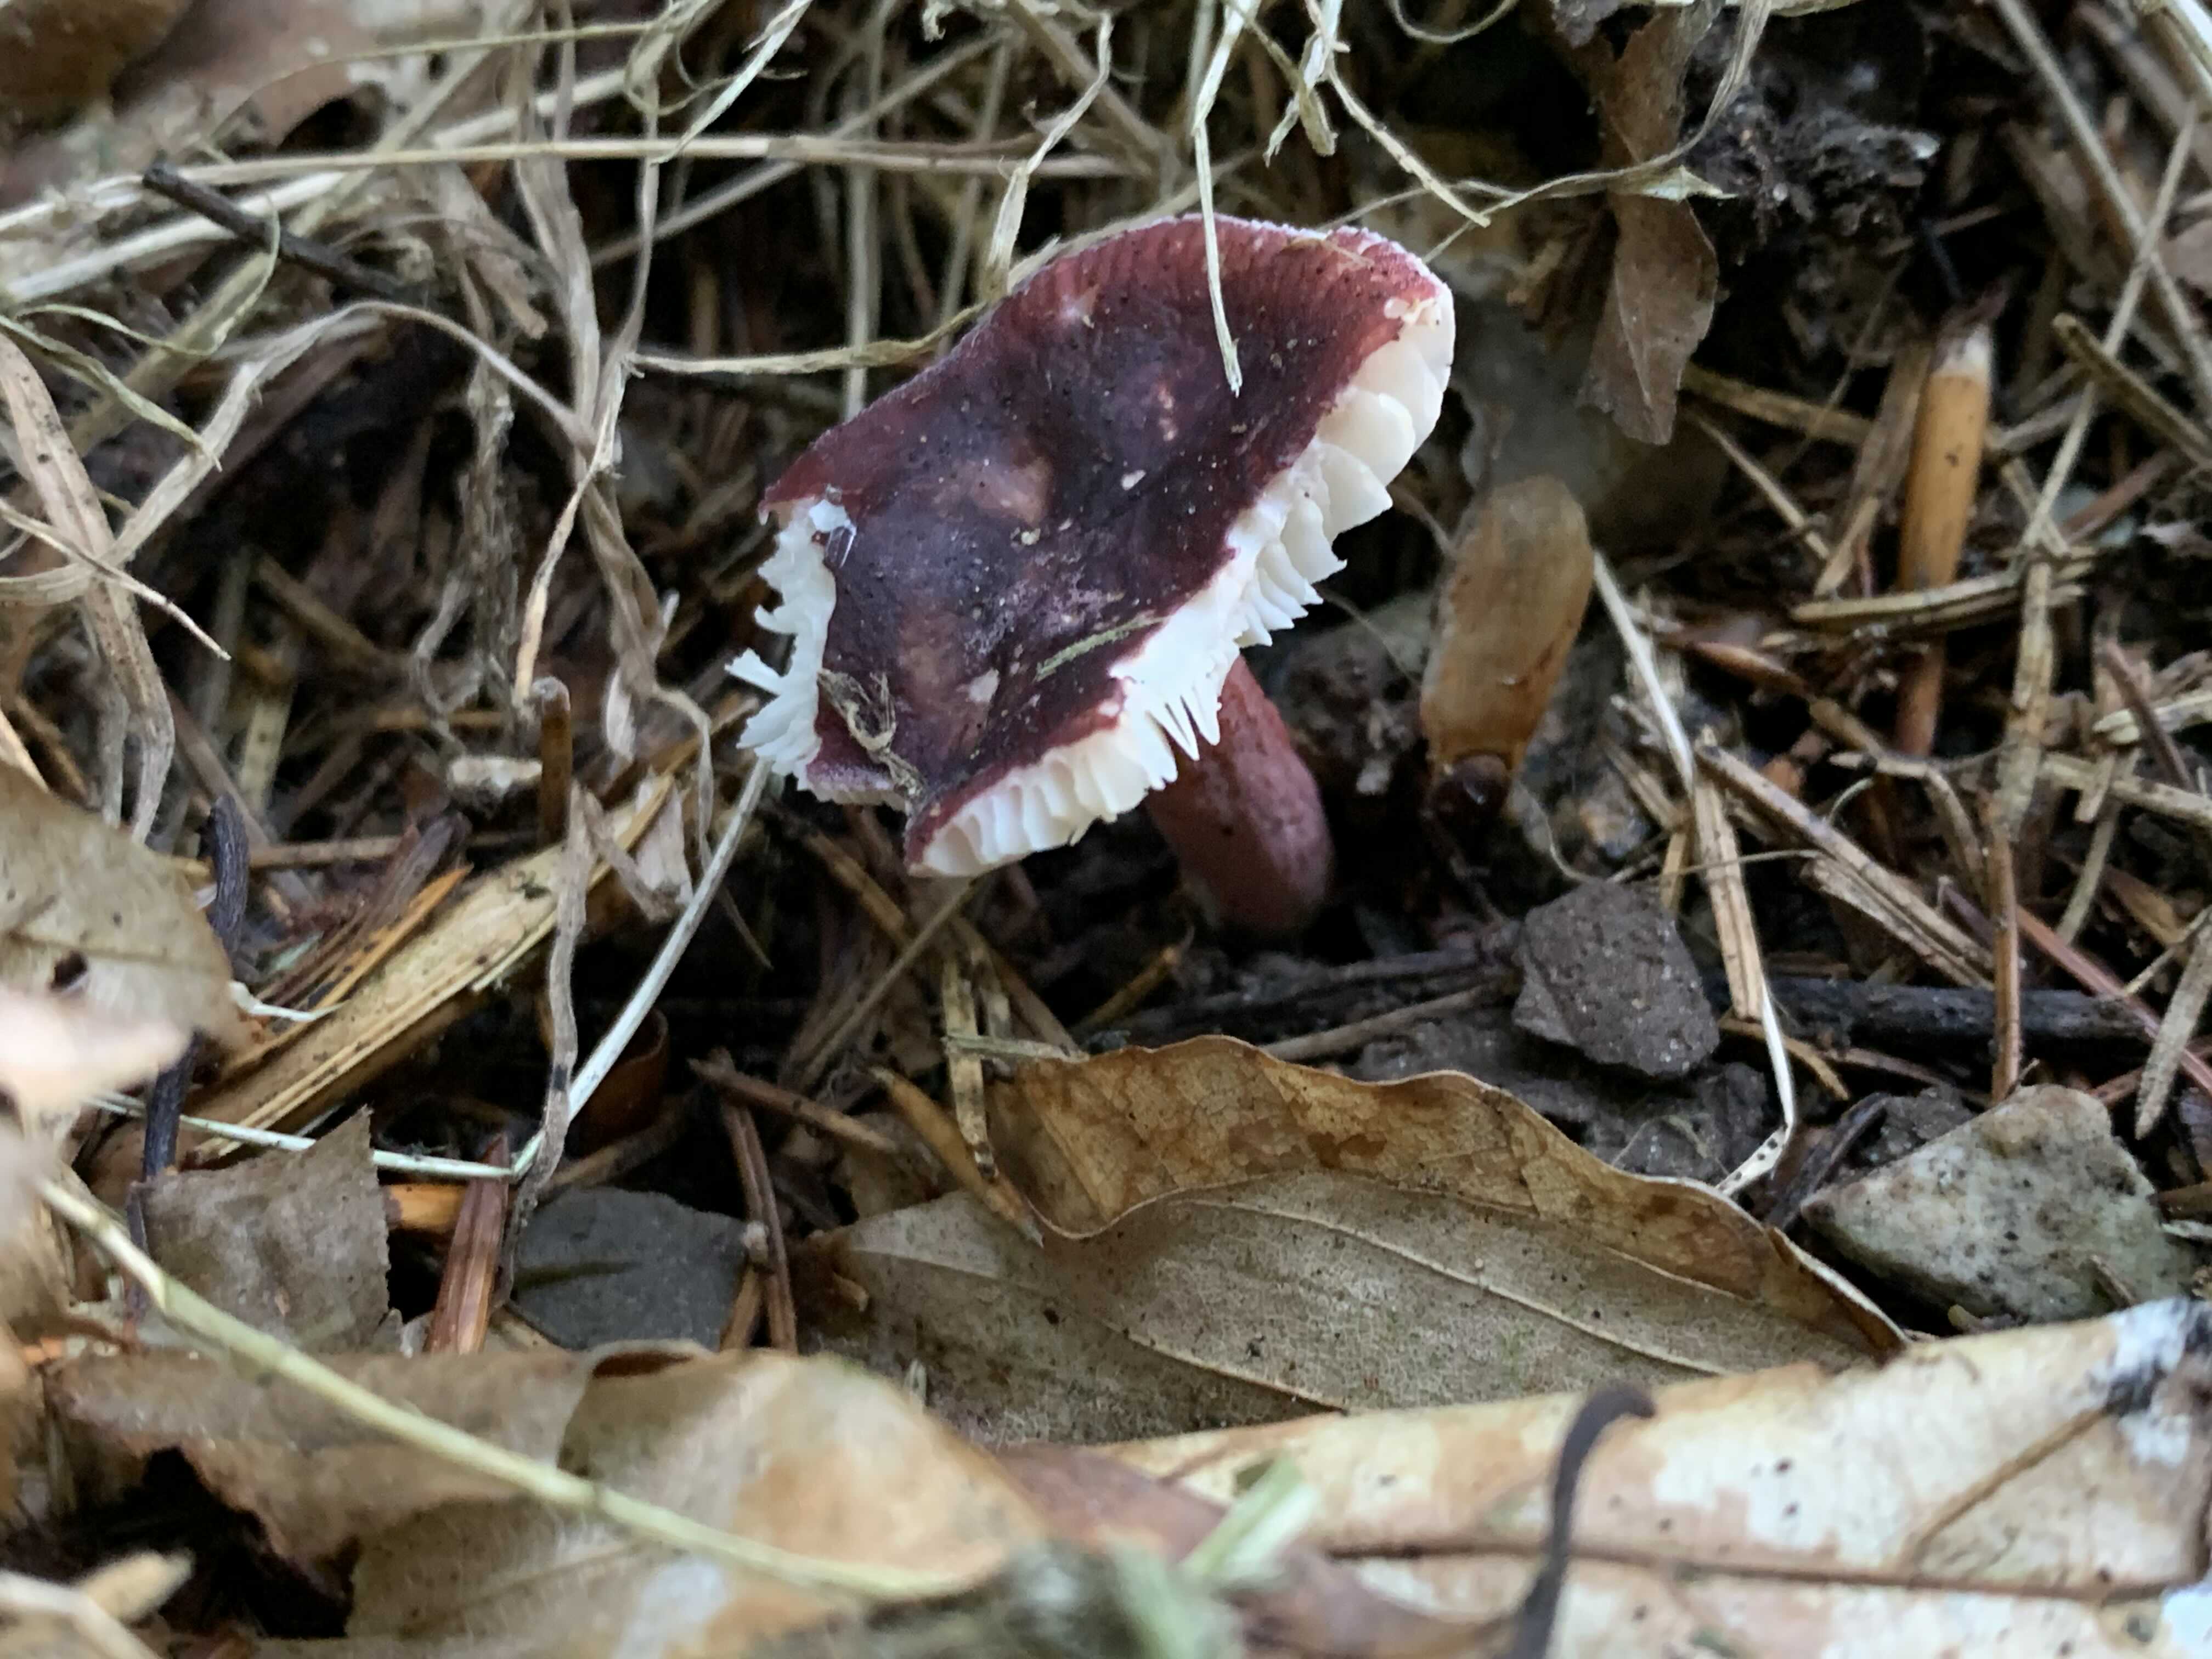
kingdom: Fungi
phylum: Basidiomycota
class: Agaricomycetes
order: Russulales
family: Russulaceae
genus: Russula
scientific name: Russula queletii
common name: Quélets skørhat
